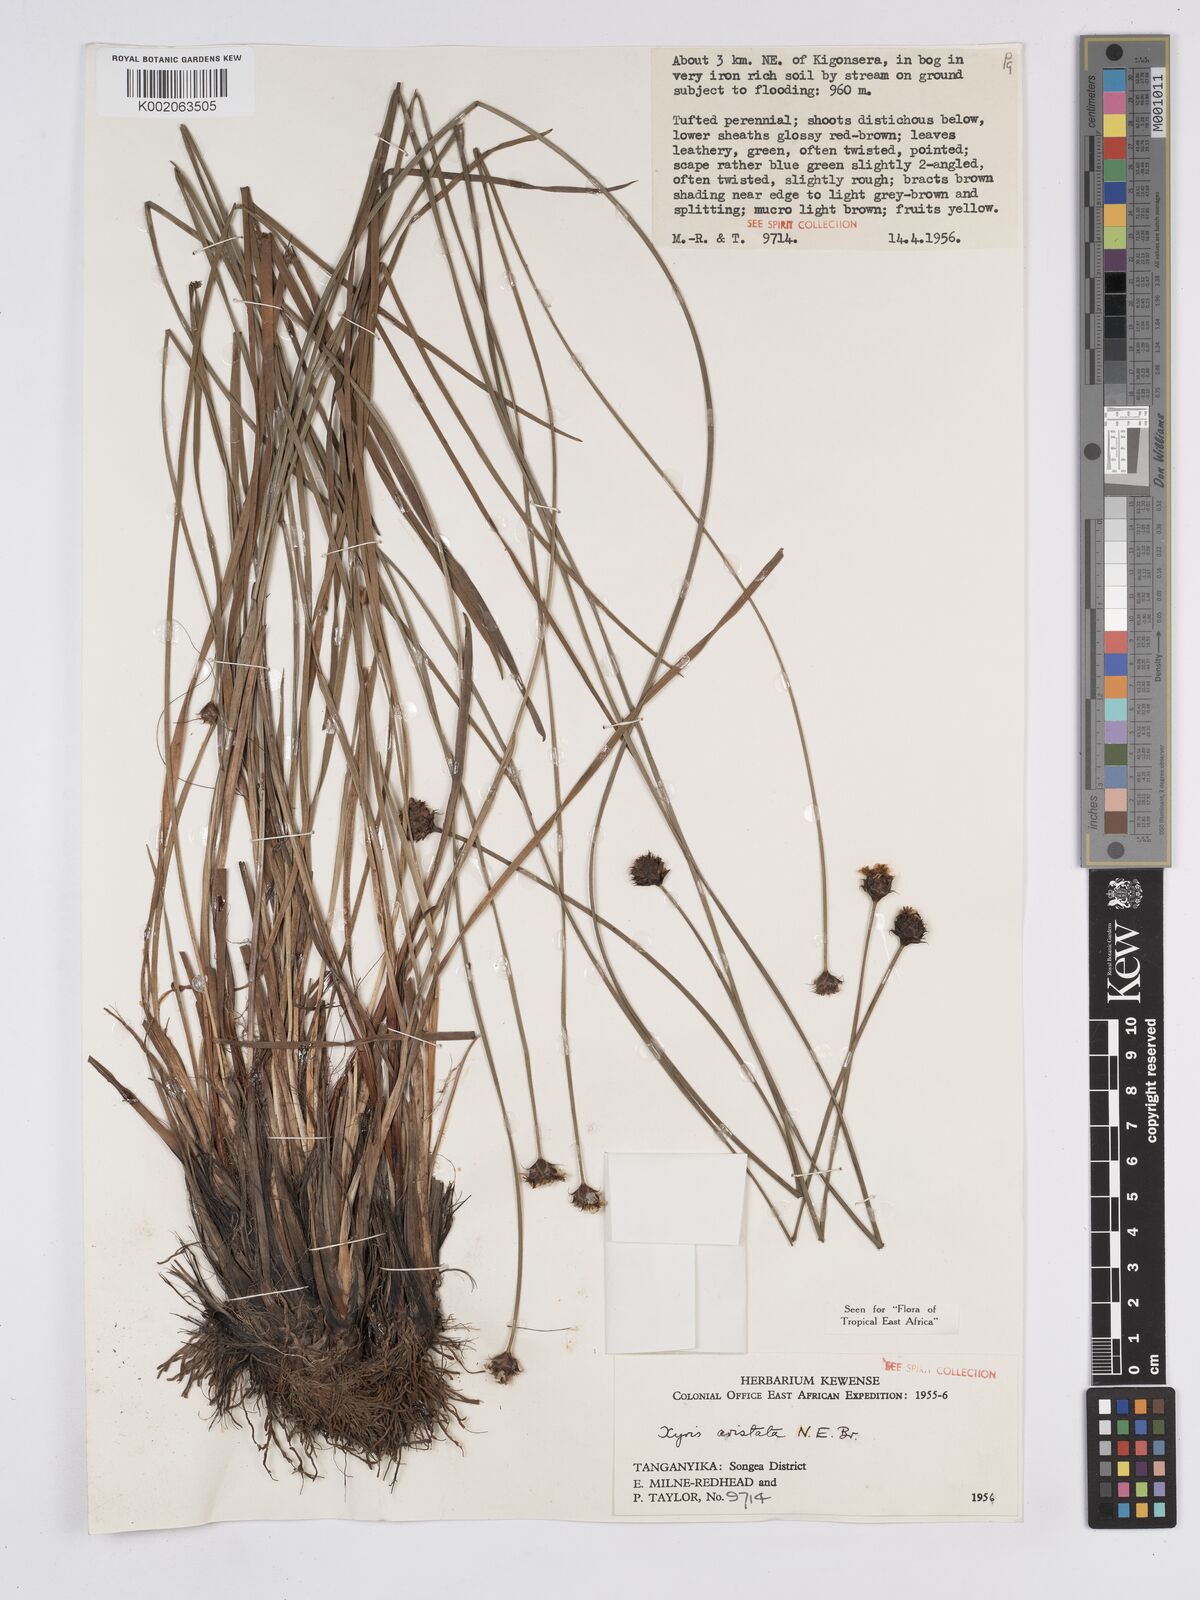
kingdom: Plantae
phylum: Tracheophyta
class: Liliopsida
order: Poales
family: Xyridaceae
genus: Xyris
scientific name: Xyris aristata
